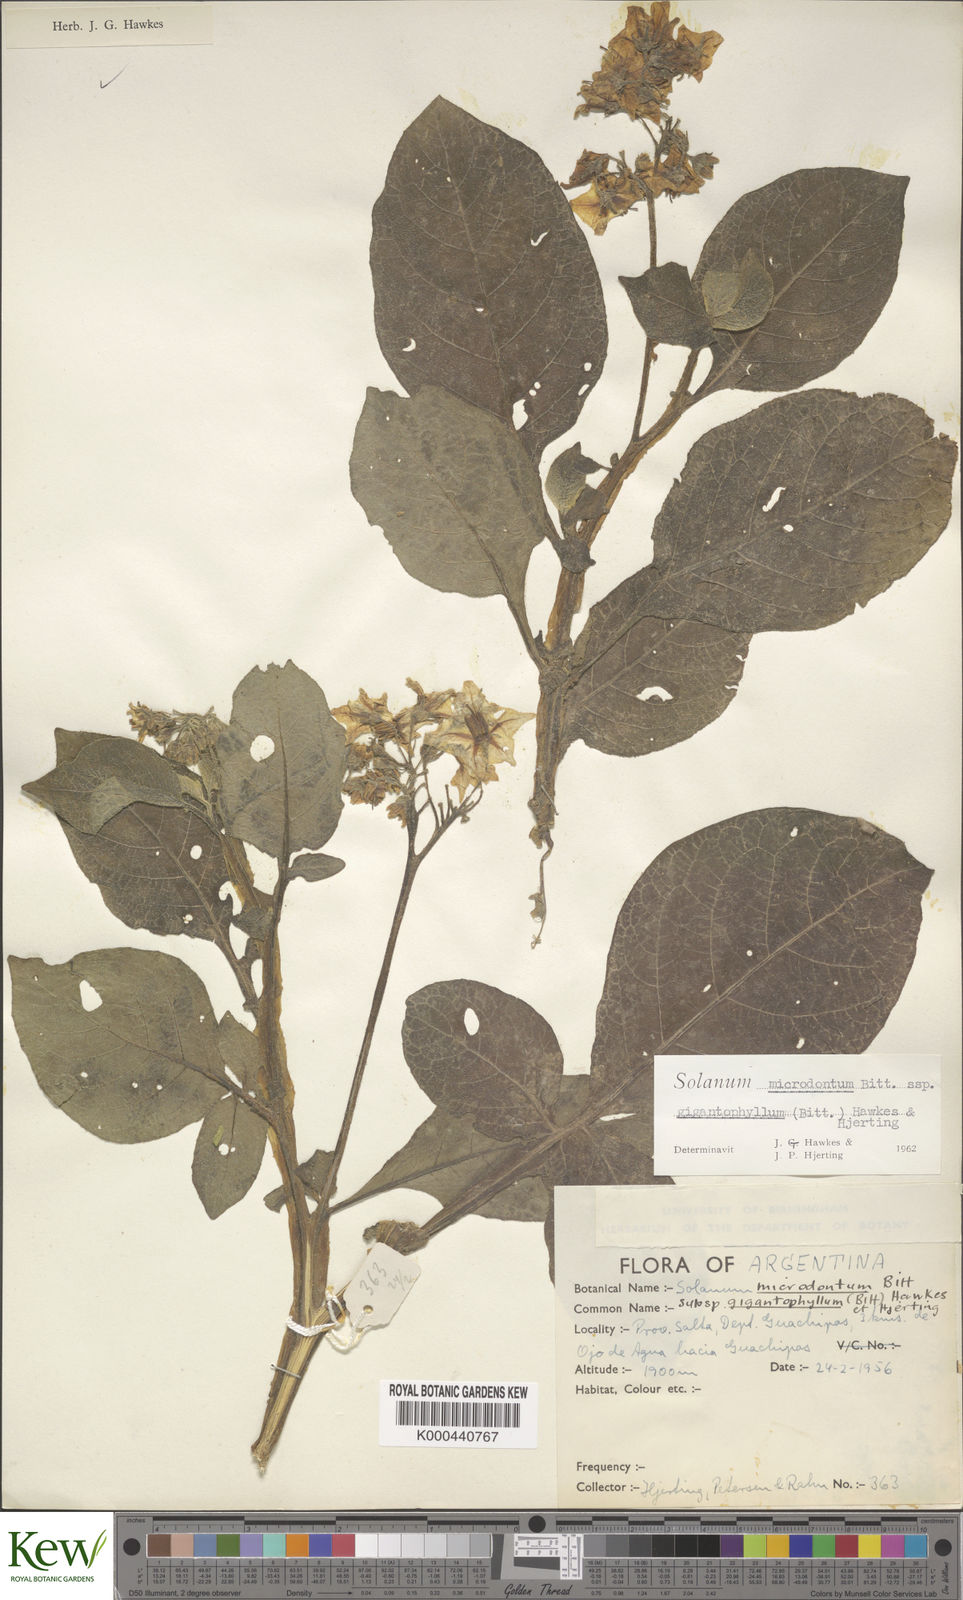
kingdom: Plantae
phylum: Tracheophyta
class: Magnoliopsida
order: Solanales
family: Solanaceae
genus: Solanum
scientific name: Solanum microdontum
